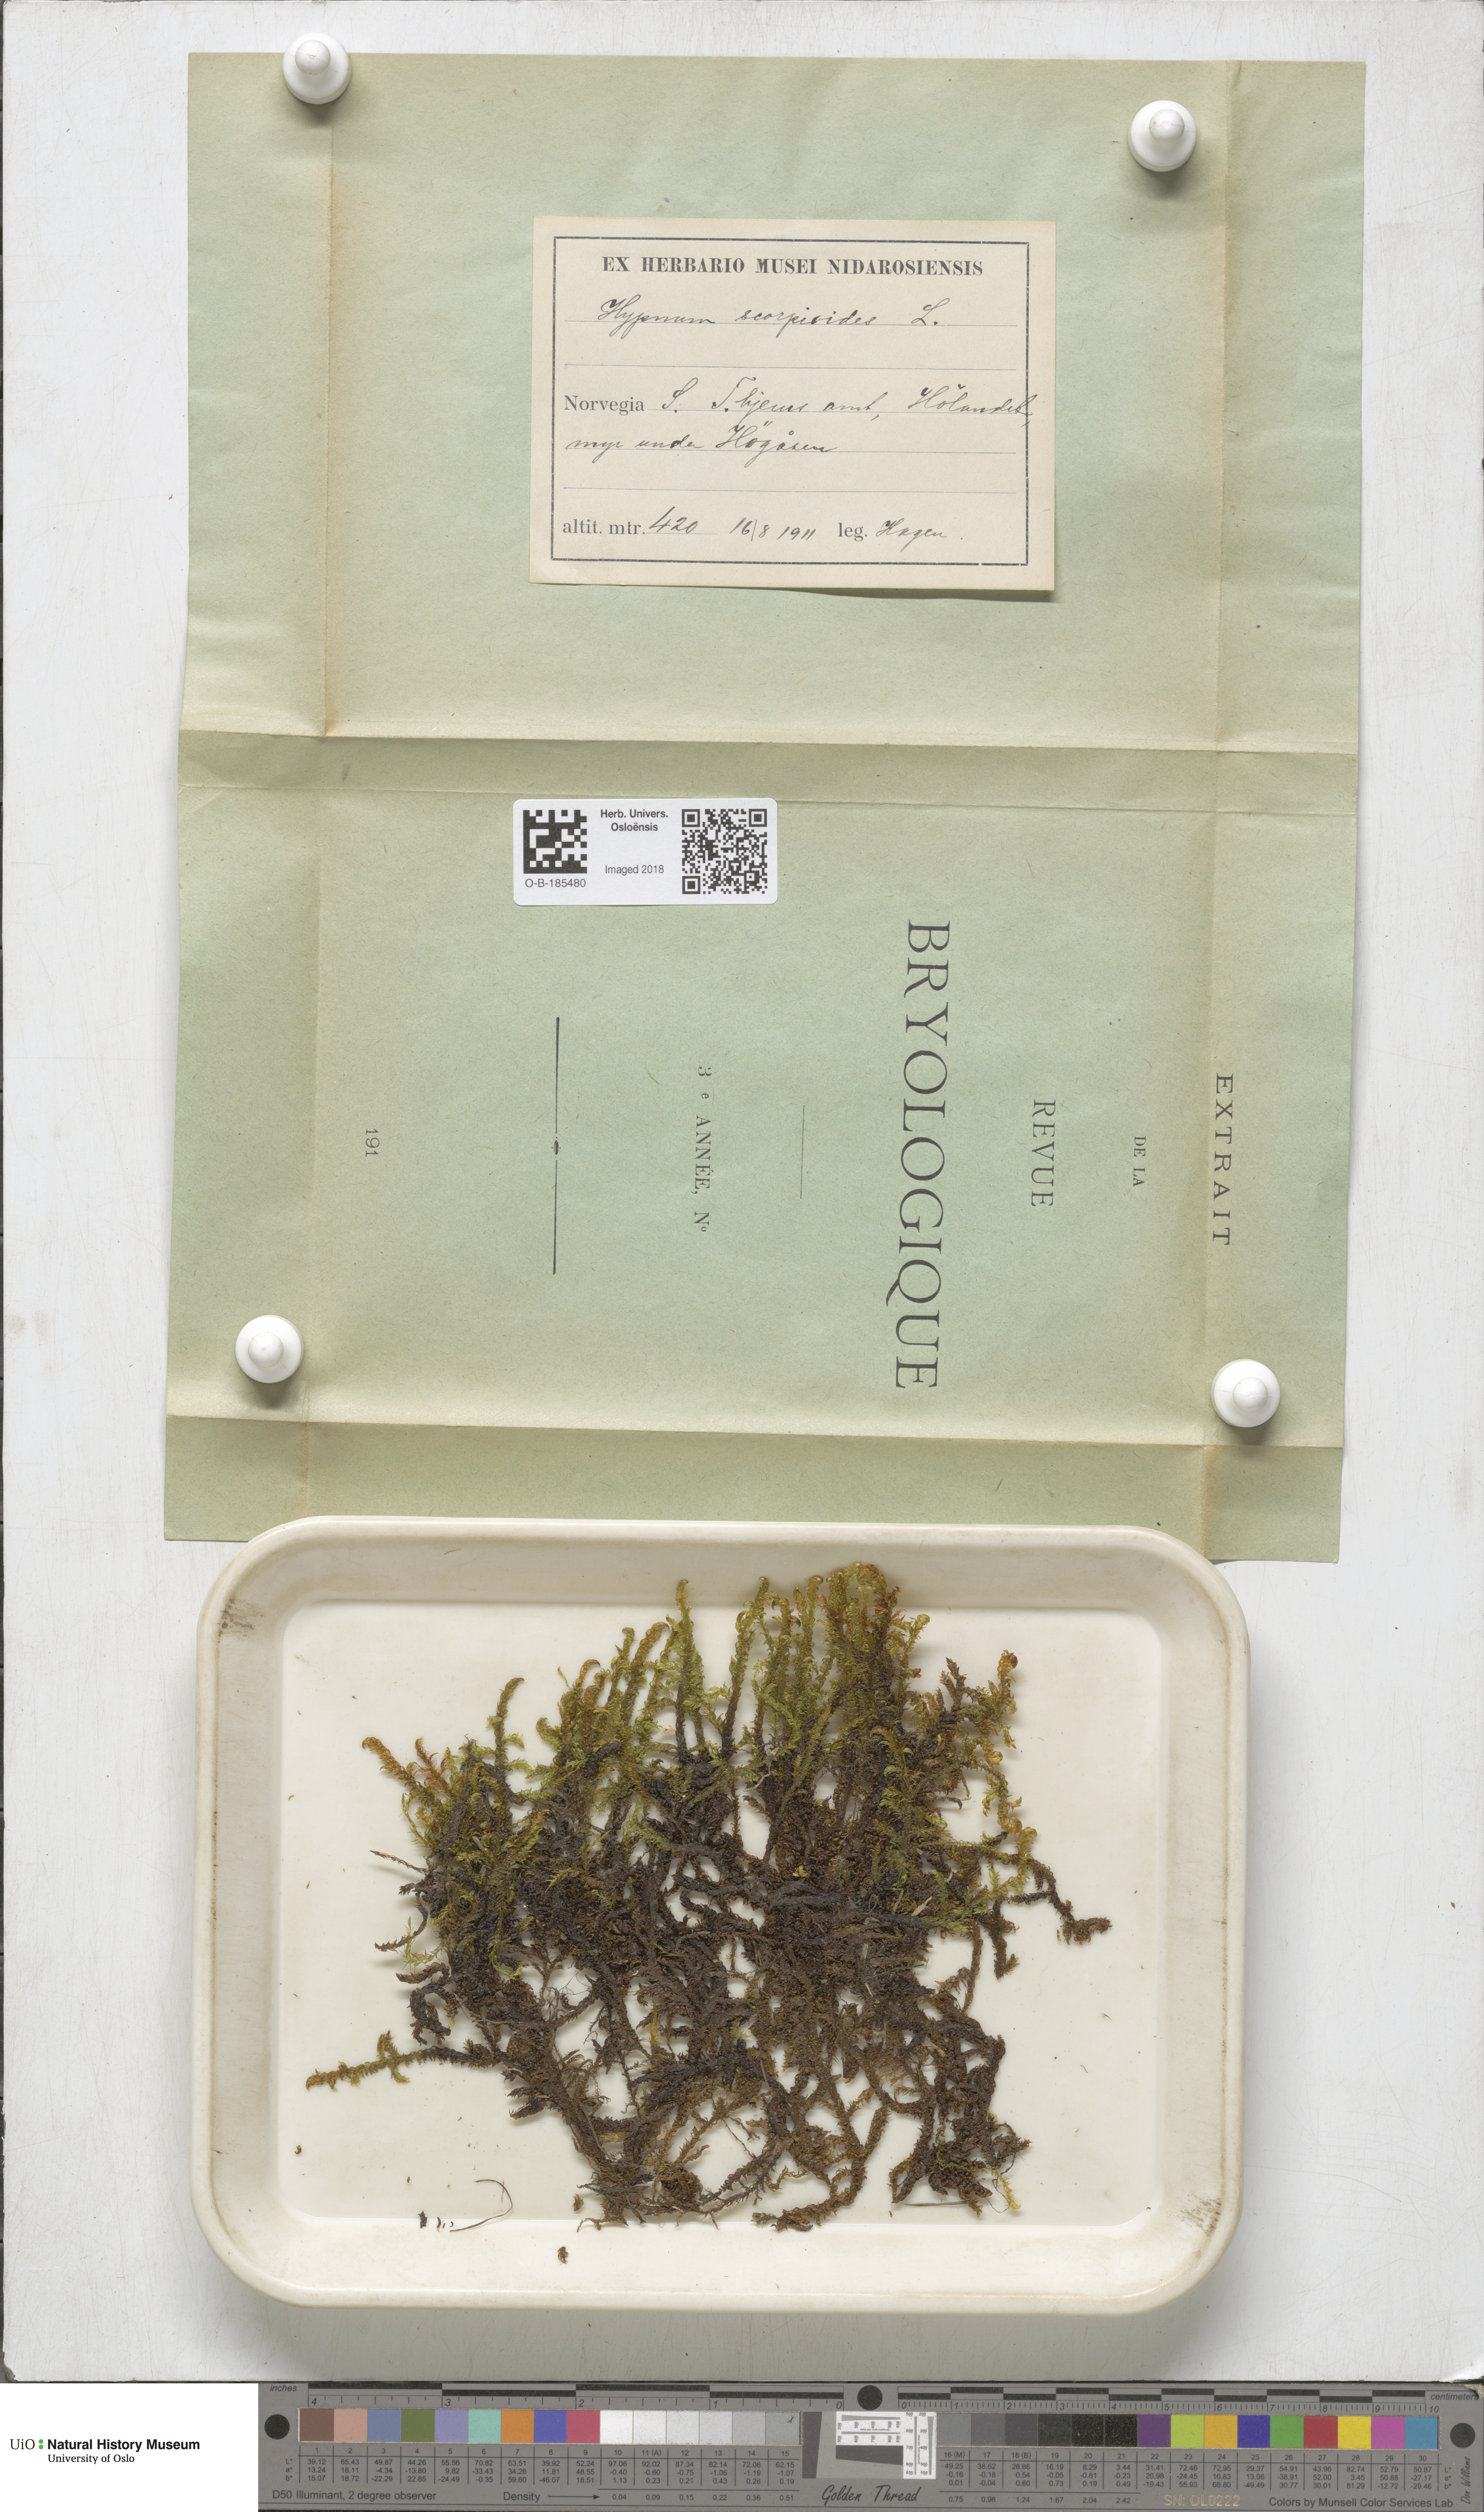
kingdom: Plantae
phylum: Bryophyta
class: Bryopsida
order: Hypnales
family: Scorpidiaceae
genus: Scorpidium
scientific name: Scorpidium scorpioides
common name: Hooked scorpion moss
